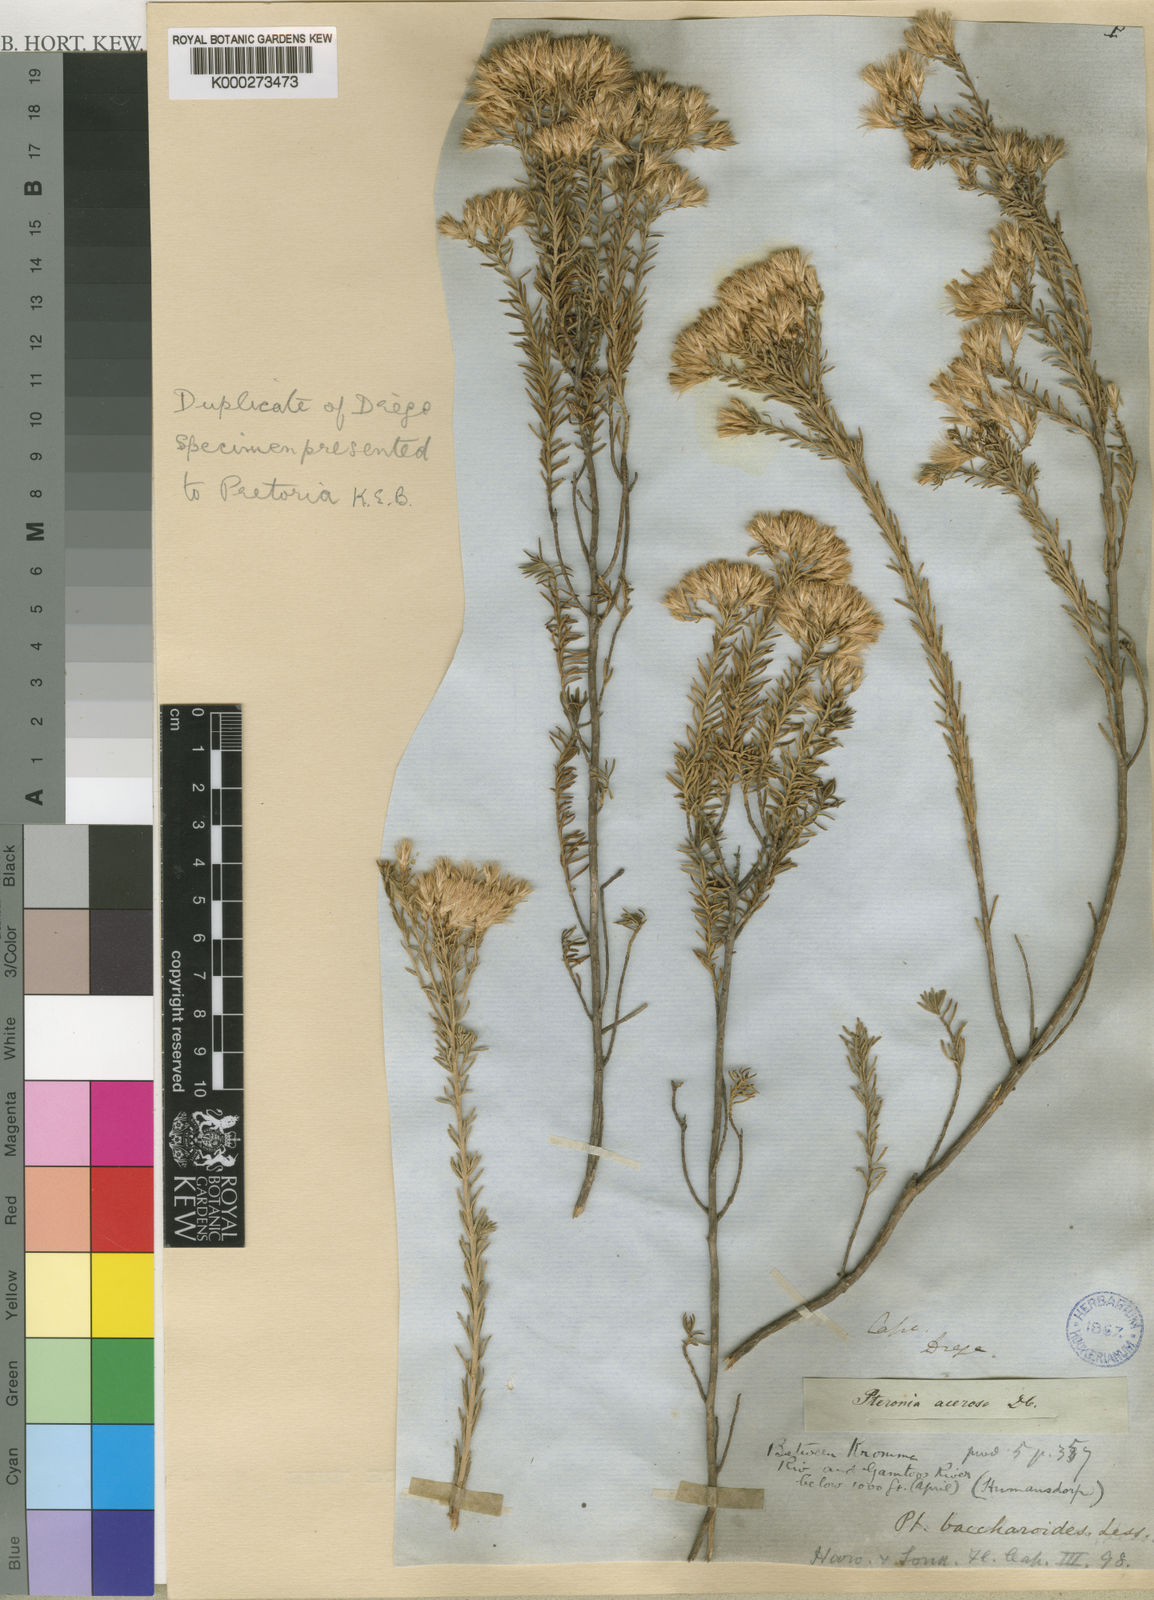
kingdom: Plantae
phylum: Tracheophyta
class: Magnoliopsida
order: Asterales
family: Asteraceae
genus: Pteronia
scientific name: Pteronia teretifolia
